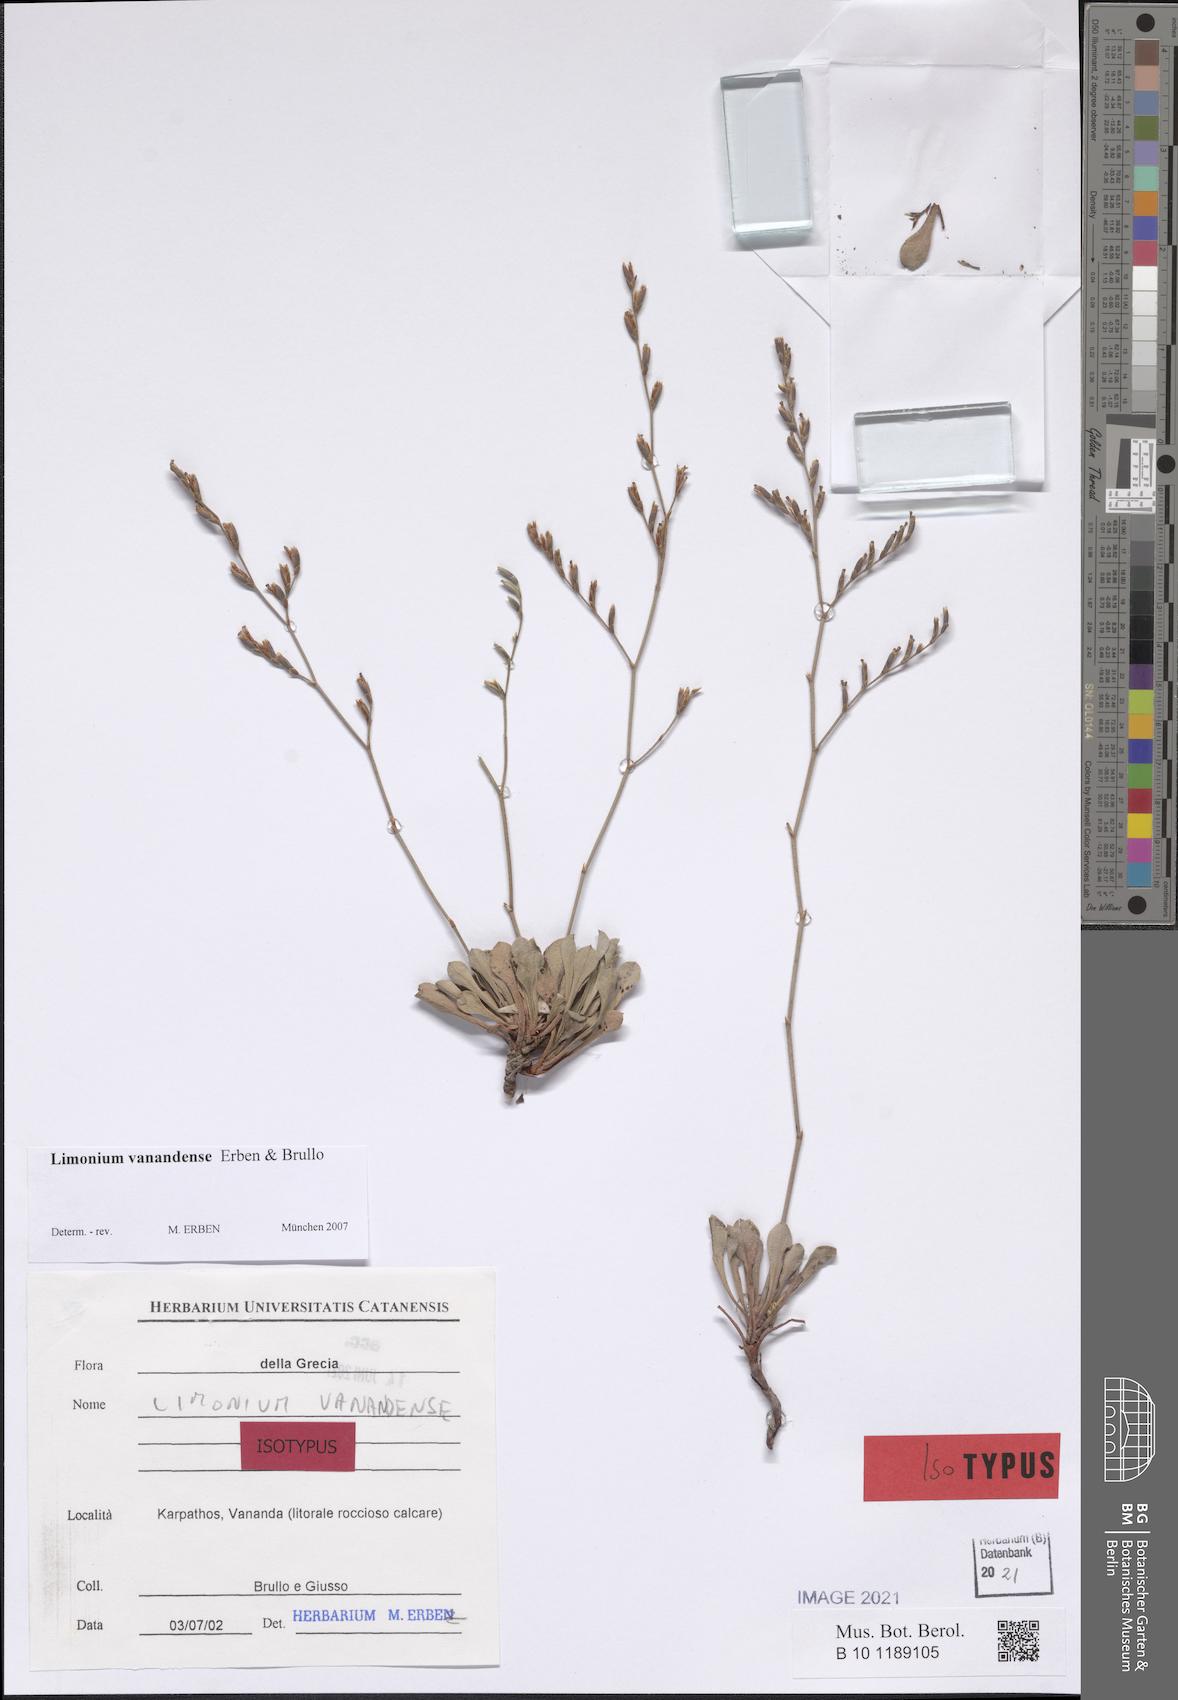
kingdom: Plantae
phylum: Tracheophyta
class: Magnoliopsida
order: Caryophyllales
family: Plumbaginaceae
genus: Limonium
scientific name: Limonium vanandense
